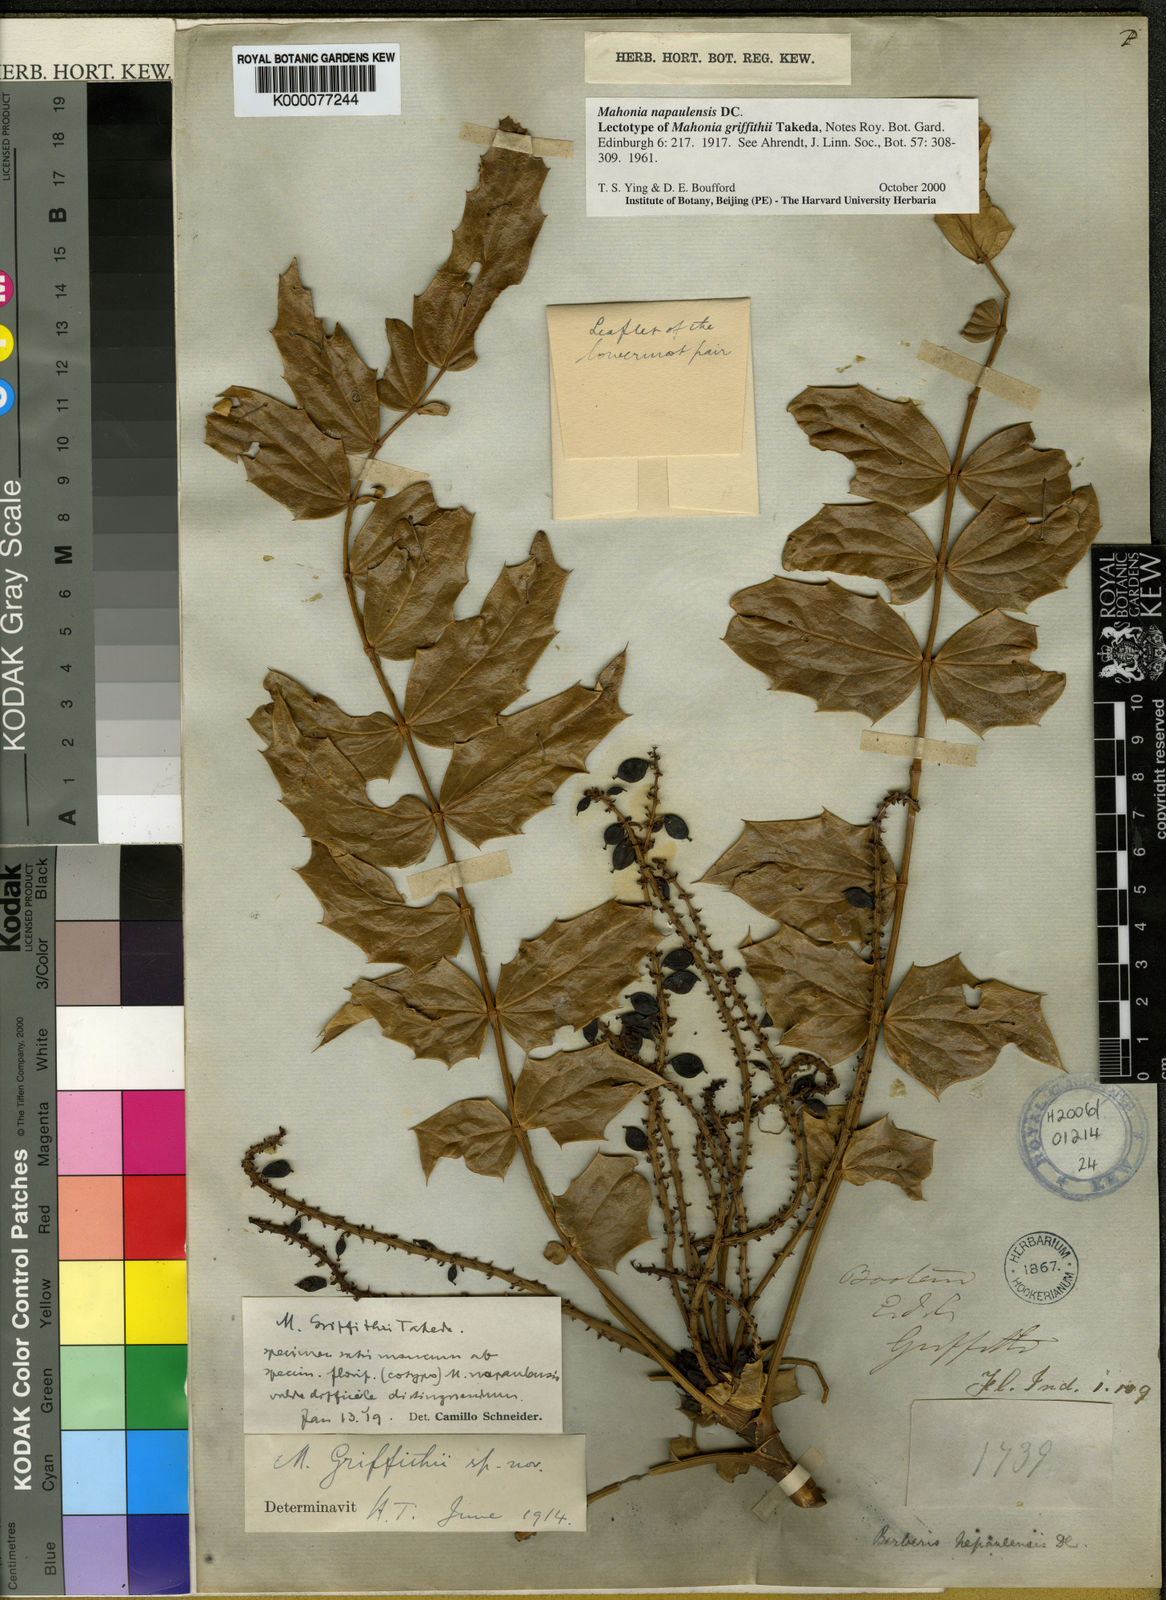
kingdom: Plantae
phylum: Tracheophyta
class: Magnoliopsida
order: Ranunculales
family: Berberidaceae
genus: Mahonia
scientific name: Mahonia napaulensis
